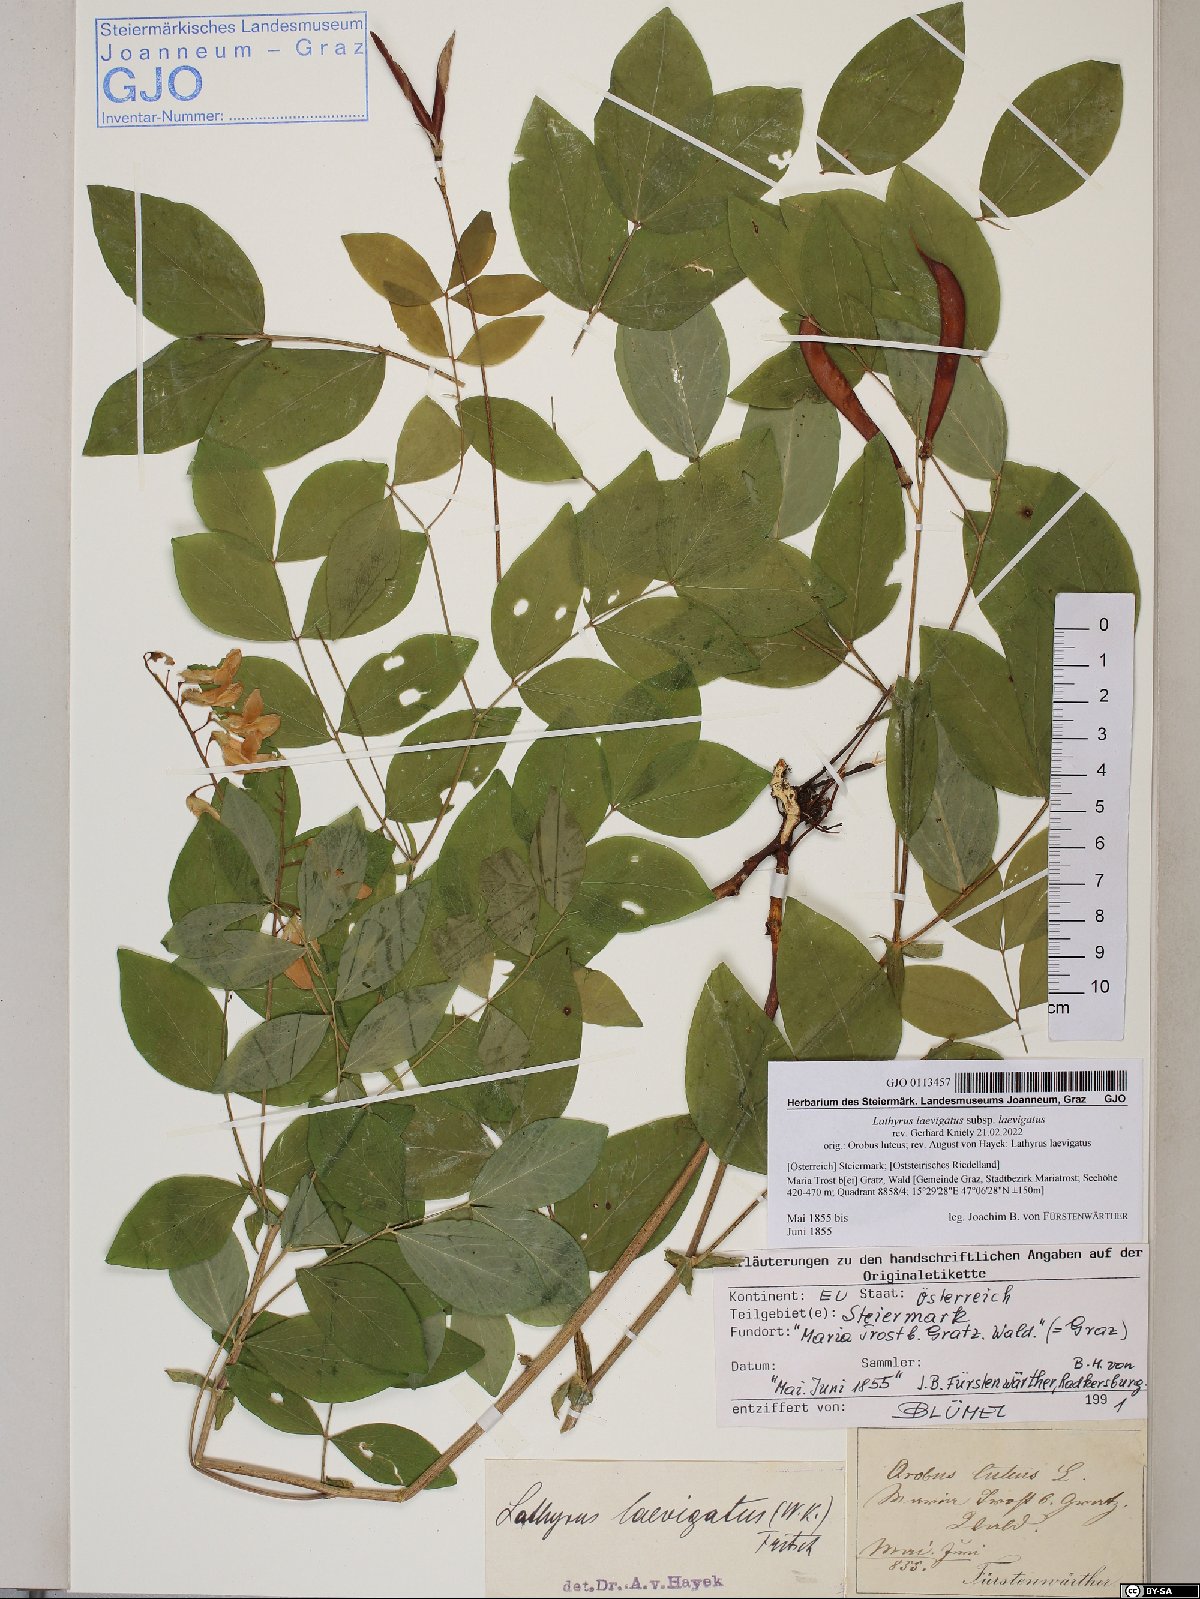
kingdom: Plantae
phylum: Tracheophyta
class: Magnoliopsida
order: Fabales
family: Fabaceae
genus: Lathyrus
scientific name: Lathyrus laevigatus
